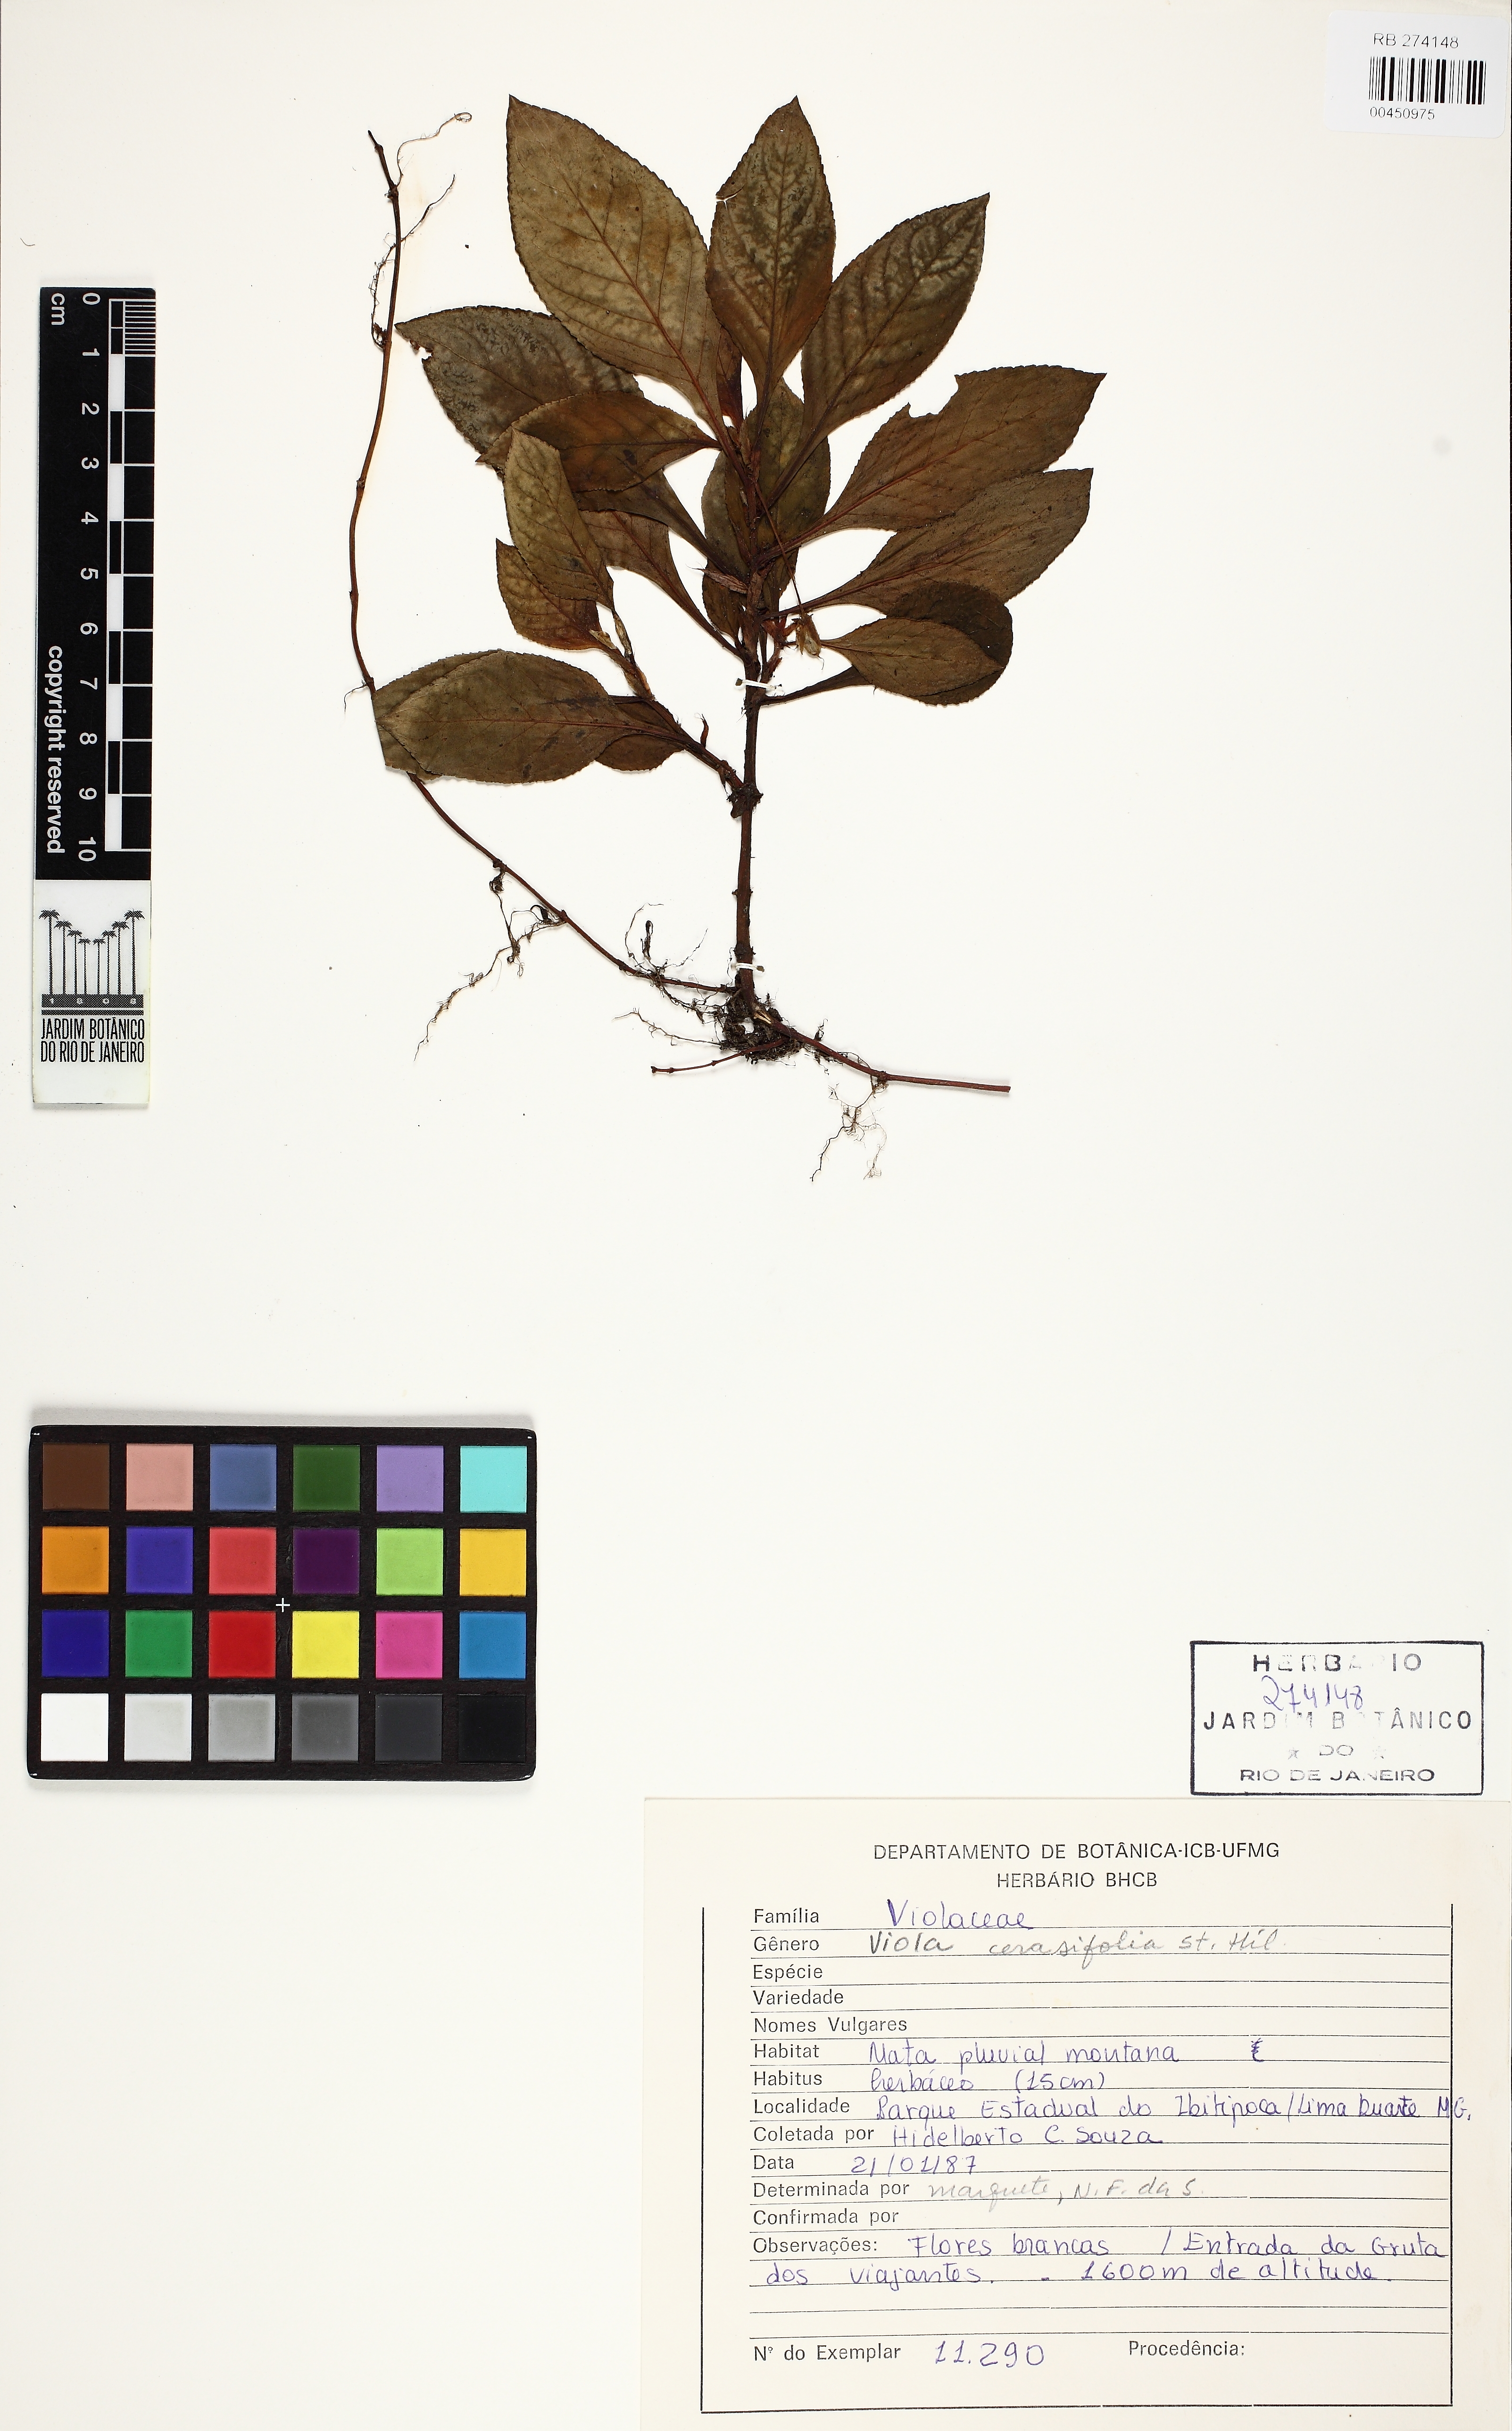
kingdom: Plantae
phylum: Tracheophyta
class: Magnoliopsida
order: Malpighiales
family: Violaceae
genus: Viola
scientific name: Viola cerasifolia
